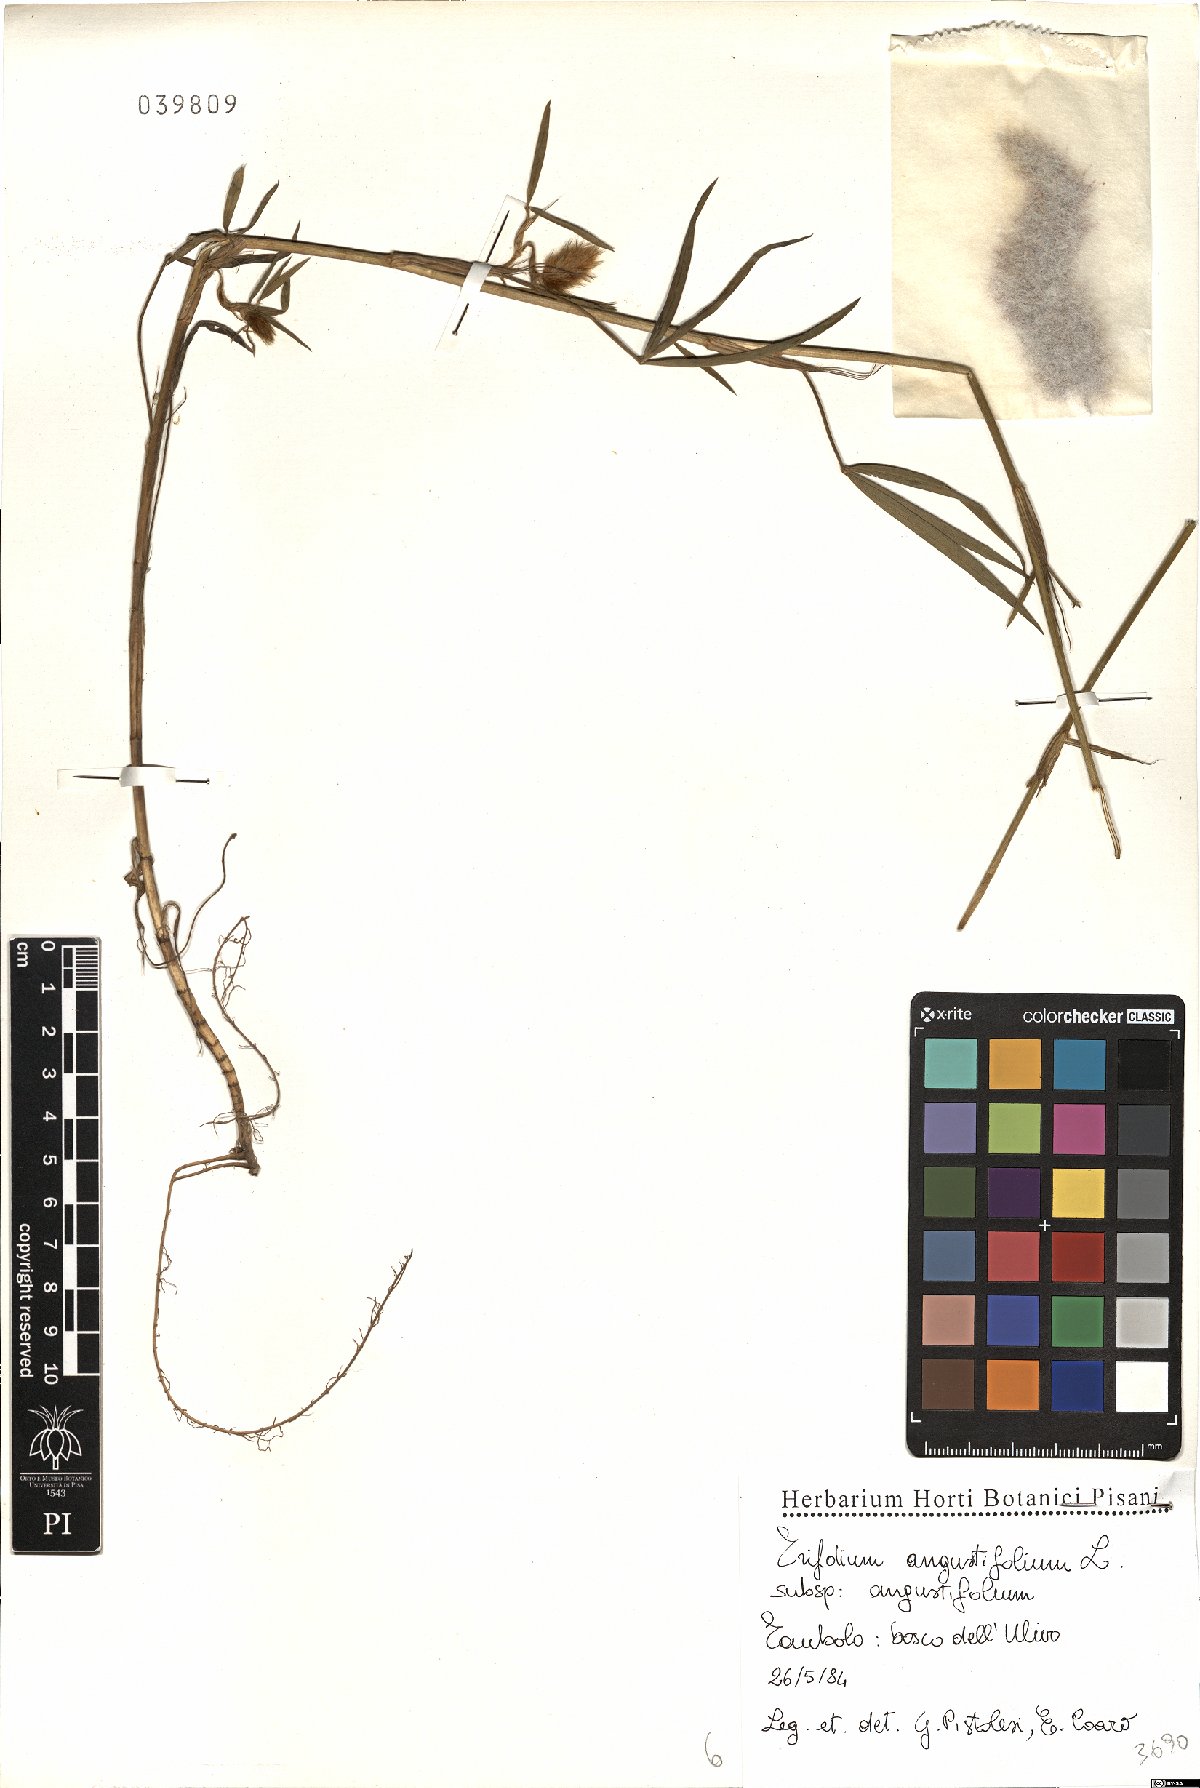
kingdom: Plantae
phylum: Tracheophyta
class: Magnoliopsida
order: Fabales
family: Fabaceae
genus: Trifolium
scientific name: Trifolium angustifolium
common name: Narrow clover
